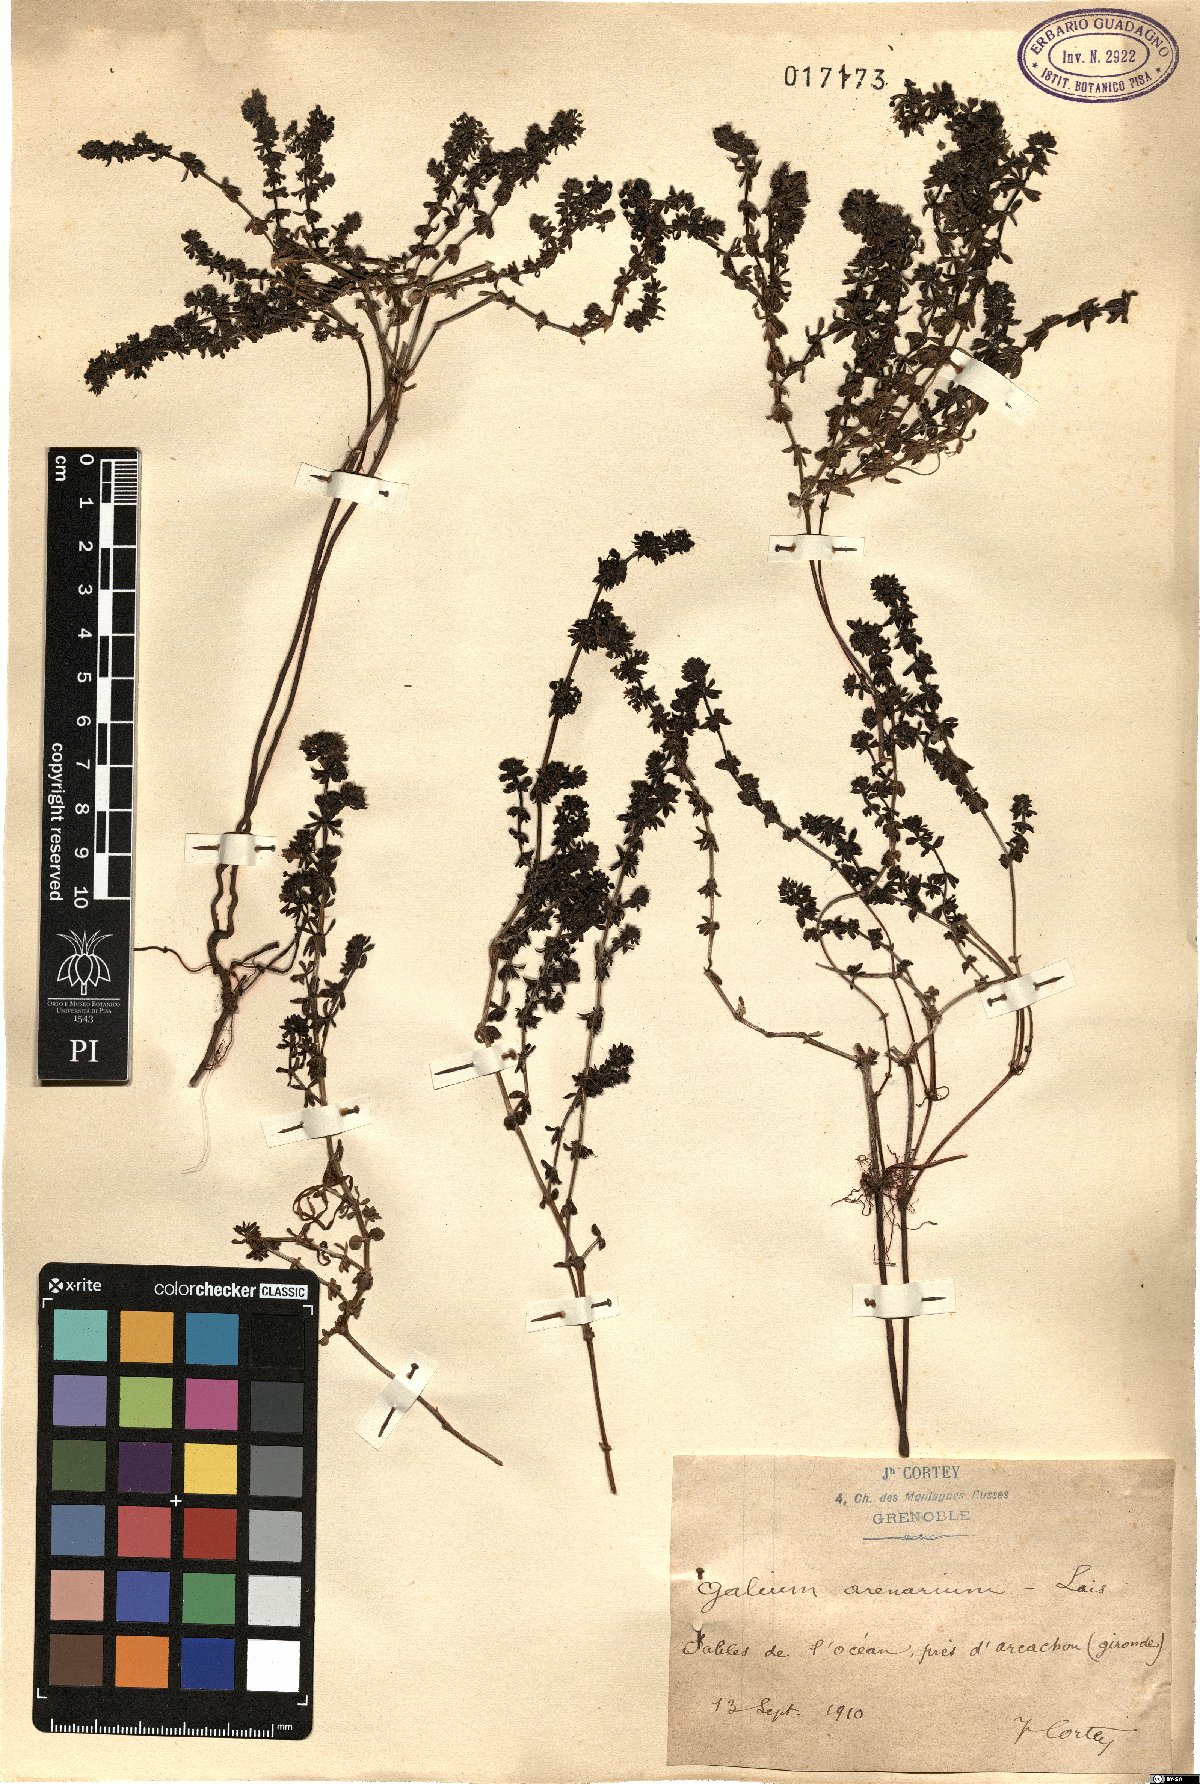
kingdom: Plantae
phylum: Tracheophyta
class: Magnoliopsida
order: Gentianales
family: Rubiaceae
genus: Galium
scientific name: Galium arenarium
